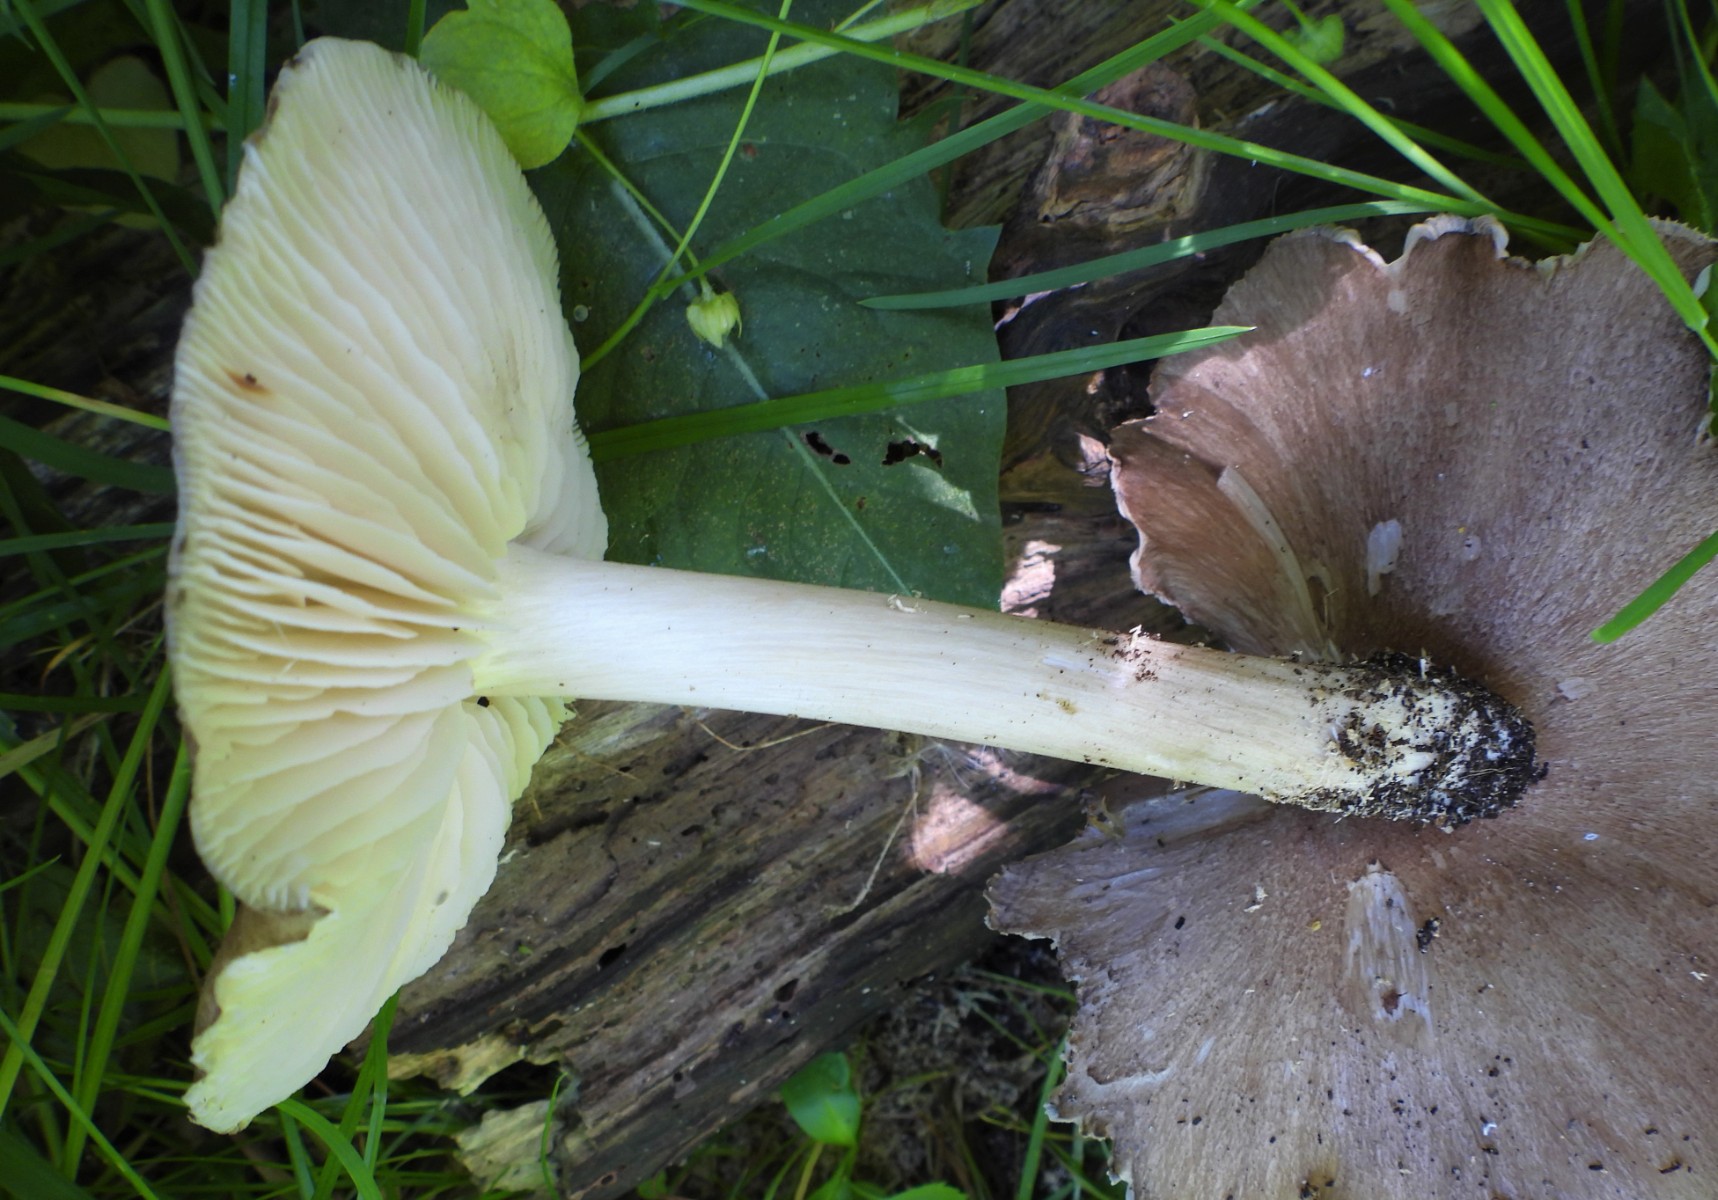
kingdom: Fungi
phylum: Basidiomycota
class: Agaricomycetes
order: Agaricales
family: Tricholomataceae
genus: Megacollybia
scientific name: Megacollybia platyphylla
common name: bredbladet væbnerhat
